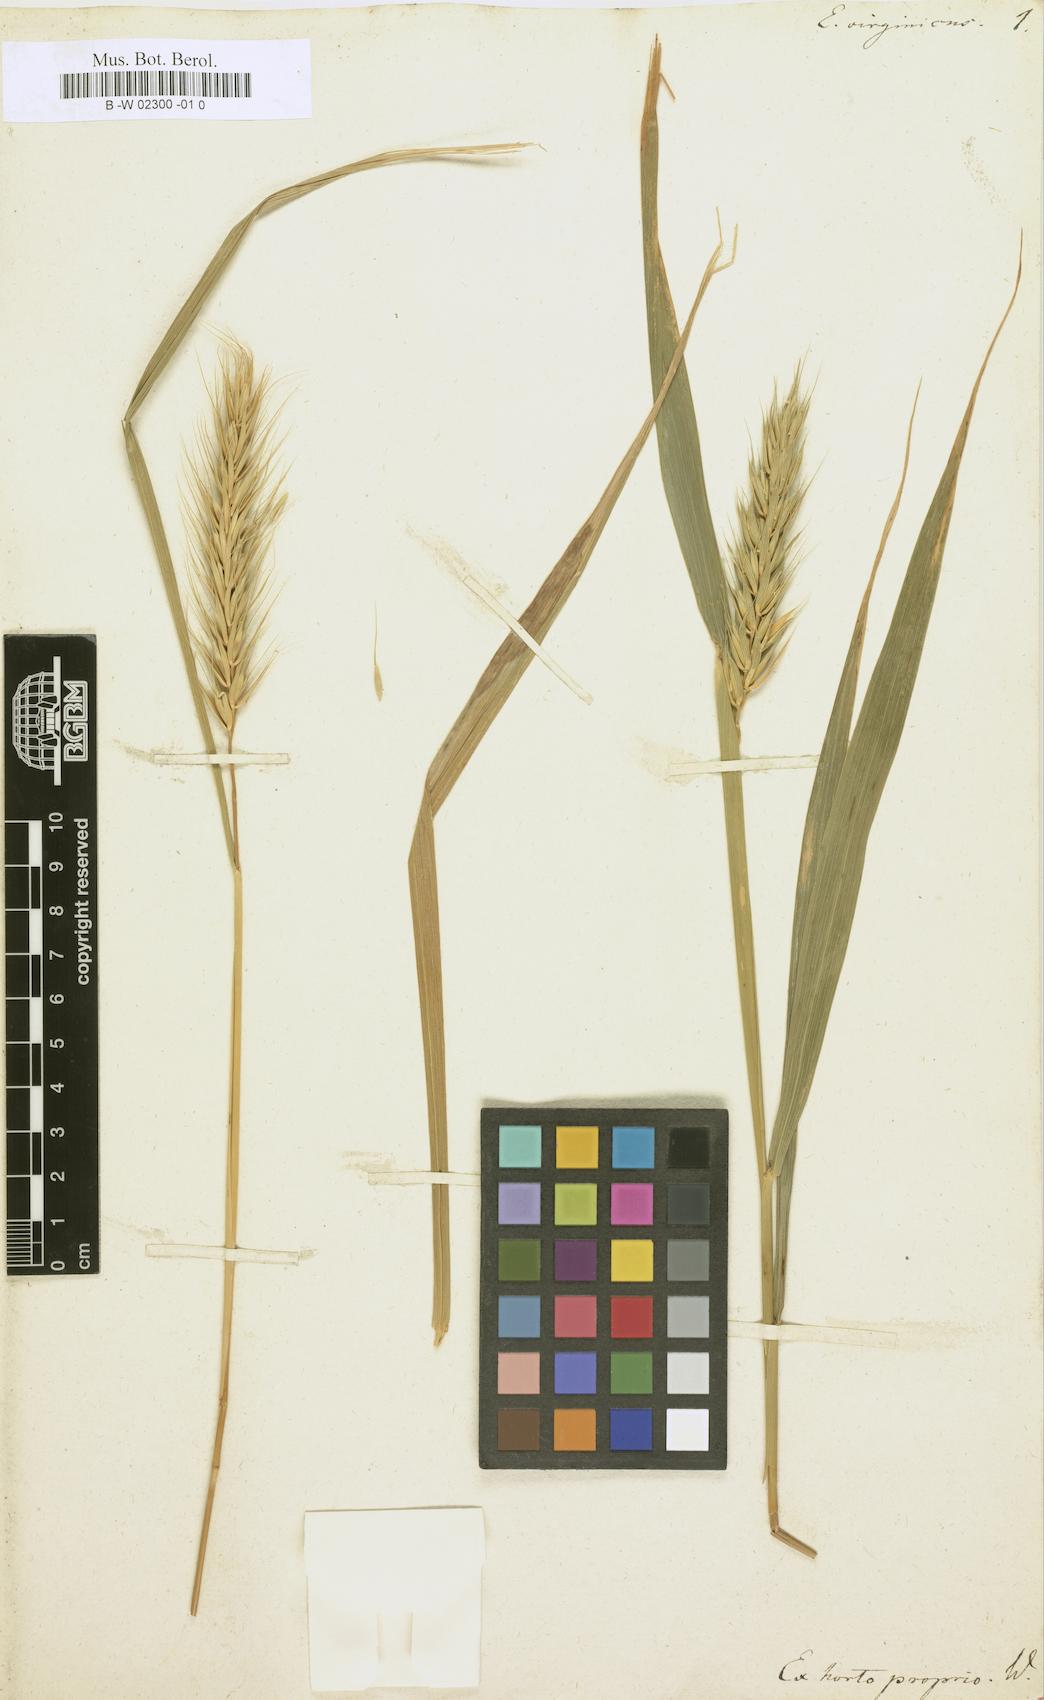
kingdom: Plantae
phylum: Tracheophyta
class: Liliopsida
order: Poales
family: Poaceae
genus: Elymus
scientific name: Elymus virginicus
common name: Common eastern wildrye
